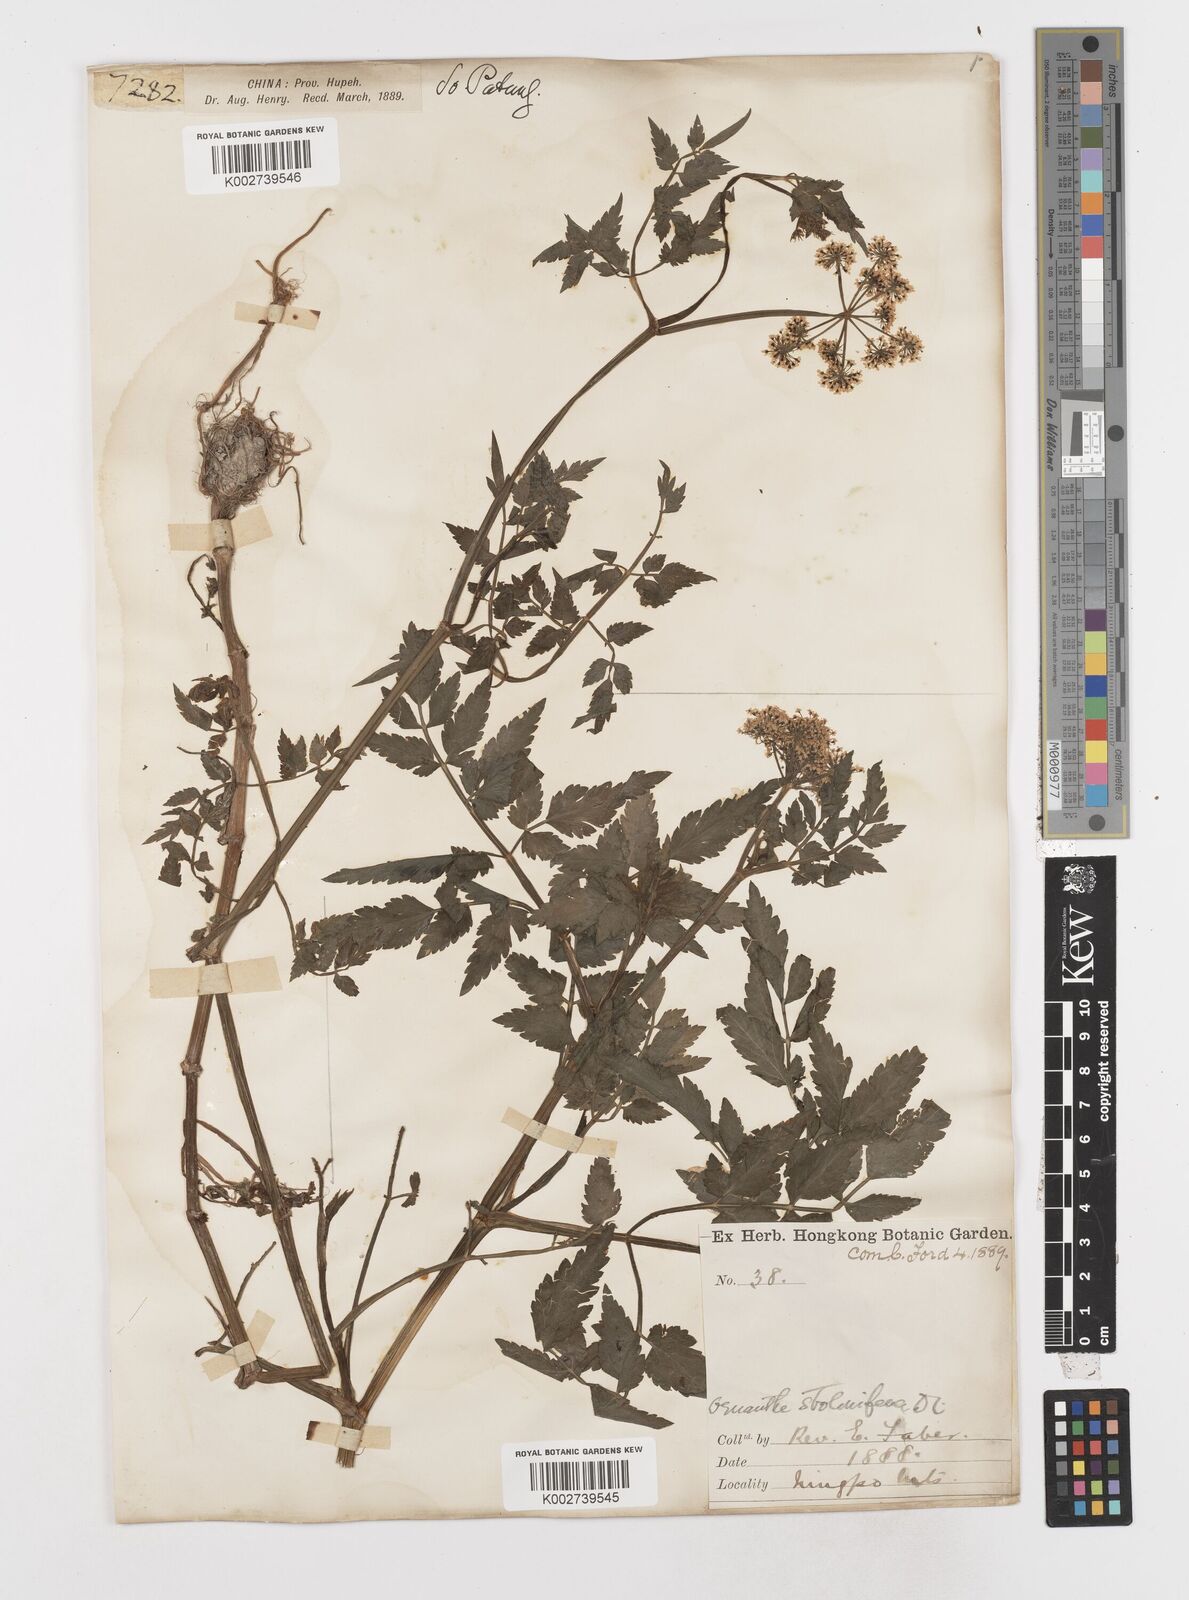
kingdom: Plantae
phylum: Tracheophyta
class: Magnoliopsida
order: Apiales
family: Apiaceae
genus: Oenanthe
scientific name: Oenanthe javanica
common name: Java water-dropwort
